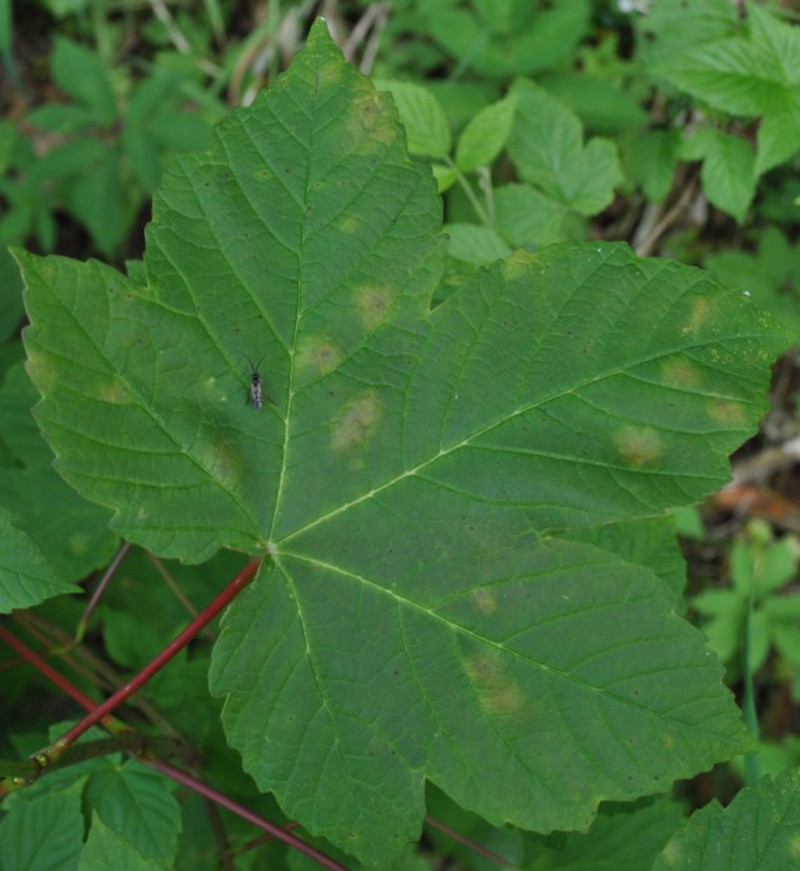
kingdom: Plantae
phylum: Tracheophyta
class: Magnoliopsida
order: Sapindales
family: Sapindaceae
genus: Acer
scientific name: Acer platanoides
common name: Norway maple
